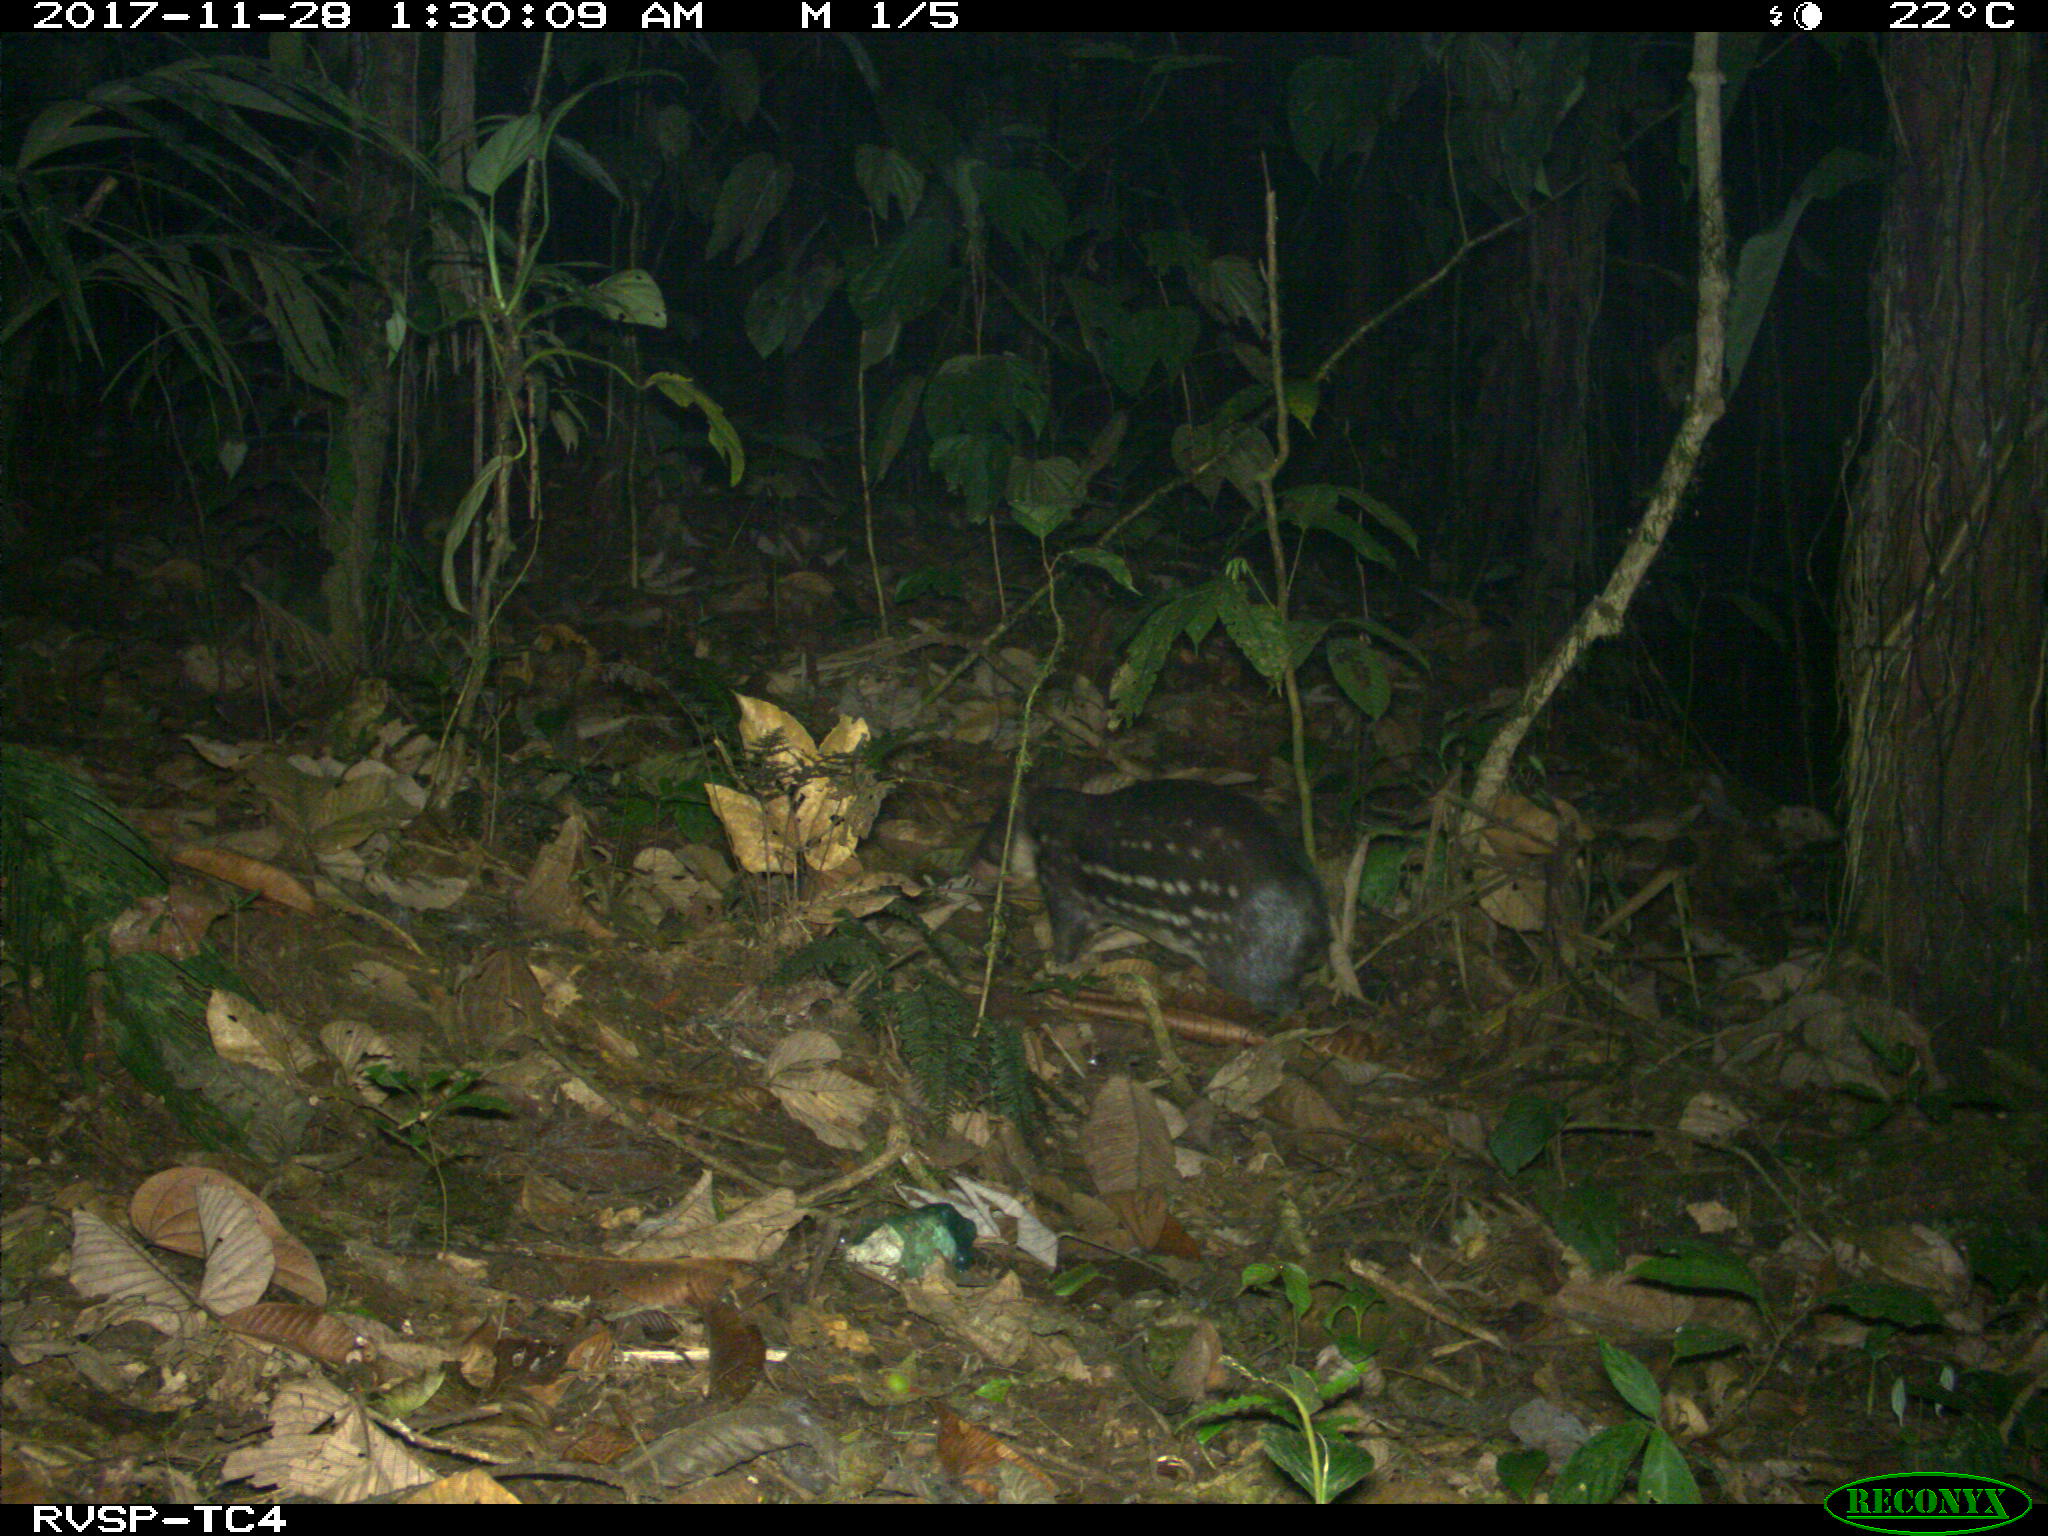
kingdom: Animalia
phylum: Chordata
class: Mammalia
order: Rodentia
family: Cuniculidae
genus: Cuniculus
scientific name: Cuniculus paca
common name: Lowland paca
